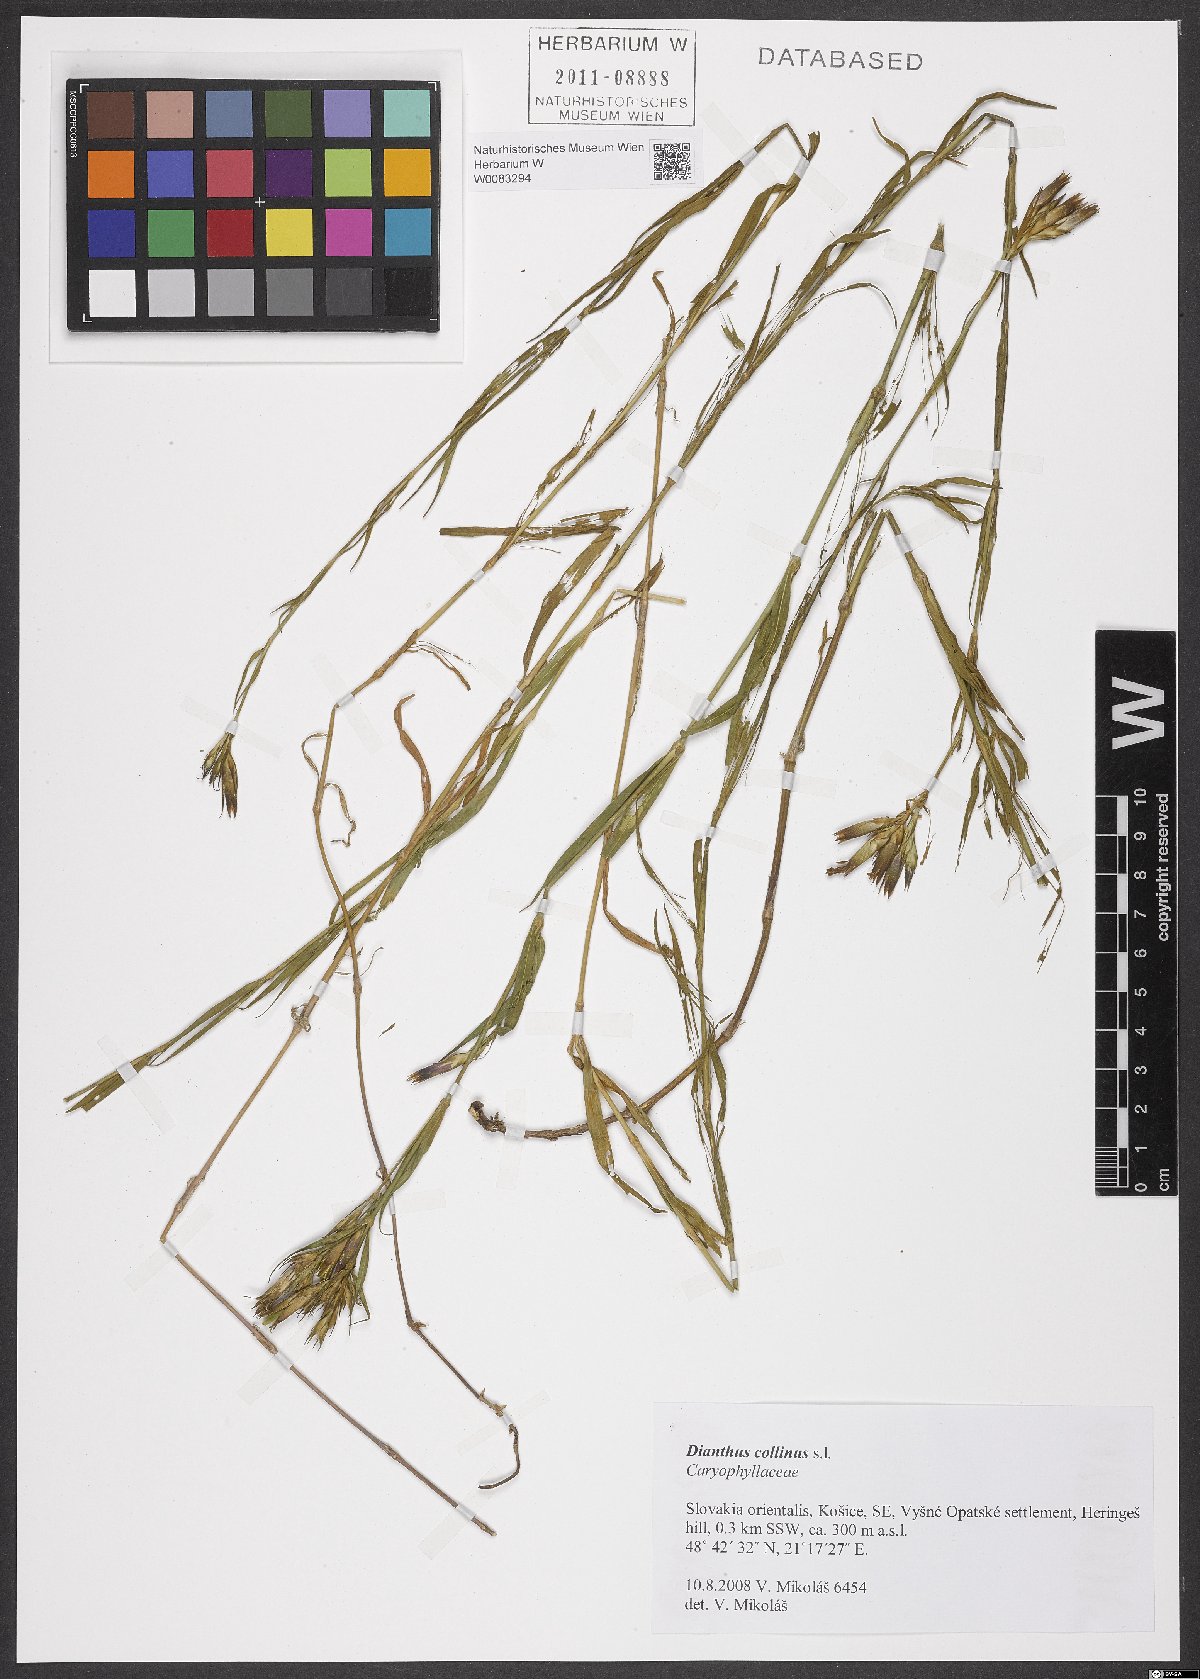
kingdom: Plantae
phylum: Tracheophyta
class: Magnoliopsida
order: Caryophyllales
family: Caryophyllaceae
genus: Dianthus
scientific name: Dianthus collinus
